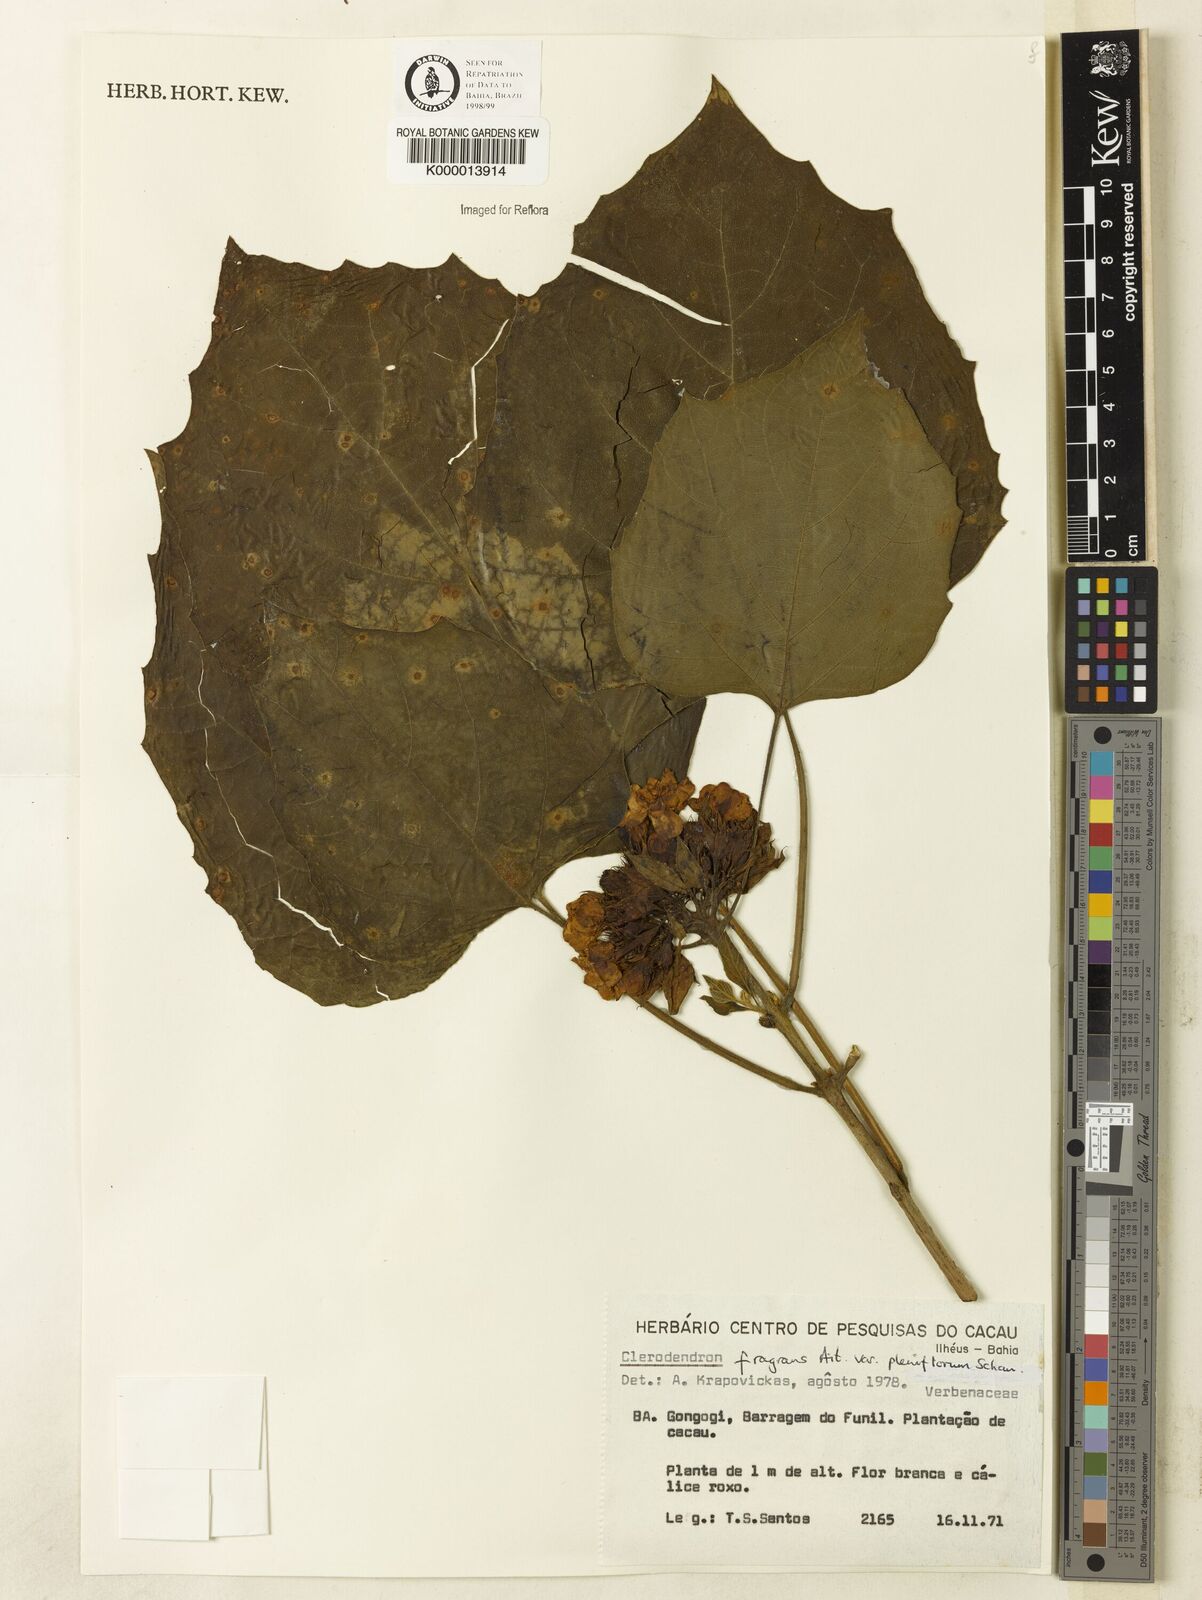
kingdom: Plantae
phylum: Tracheophyta
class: Magnoliopsida
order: Lamiales
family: Lamiaceae
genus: Clerodendrum
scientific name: Clerodendrum chinense
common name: Stickbush
